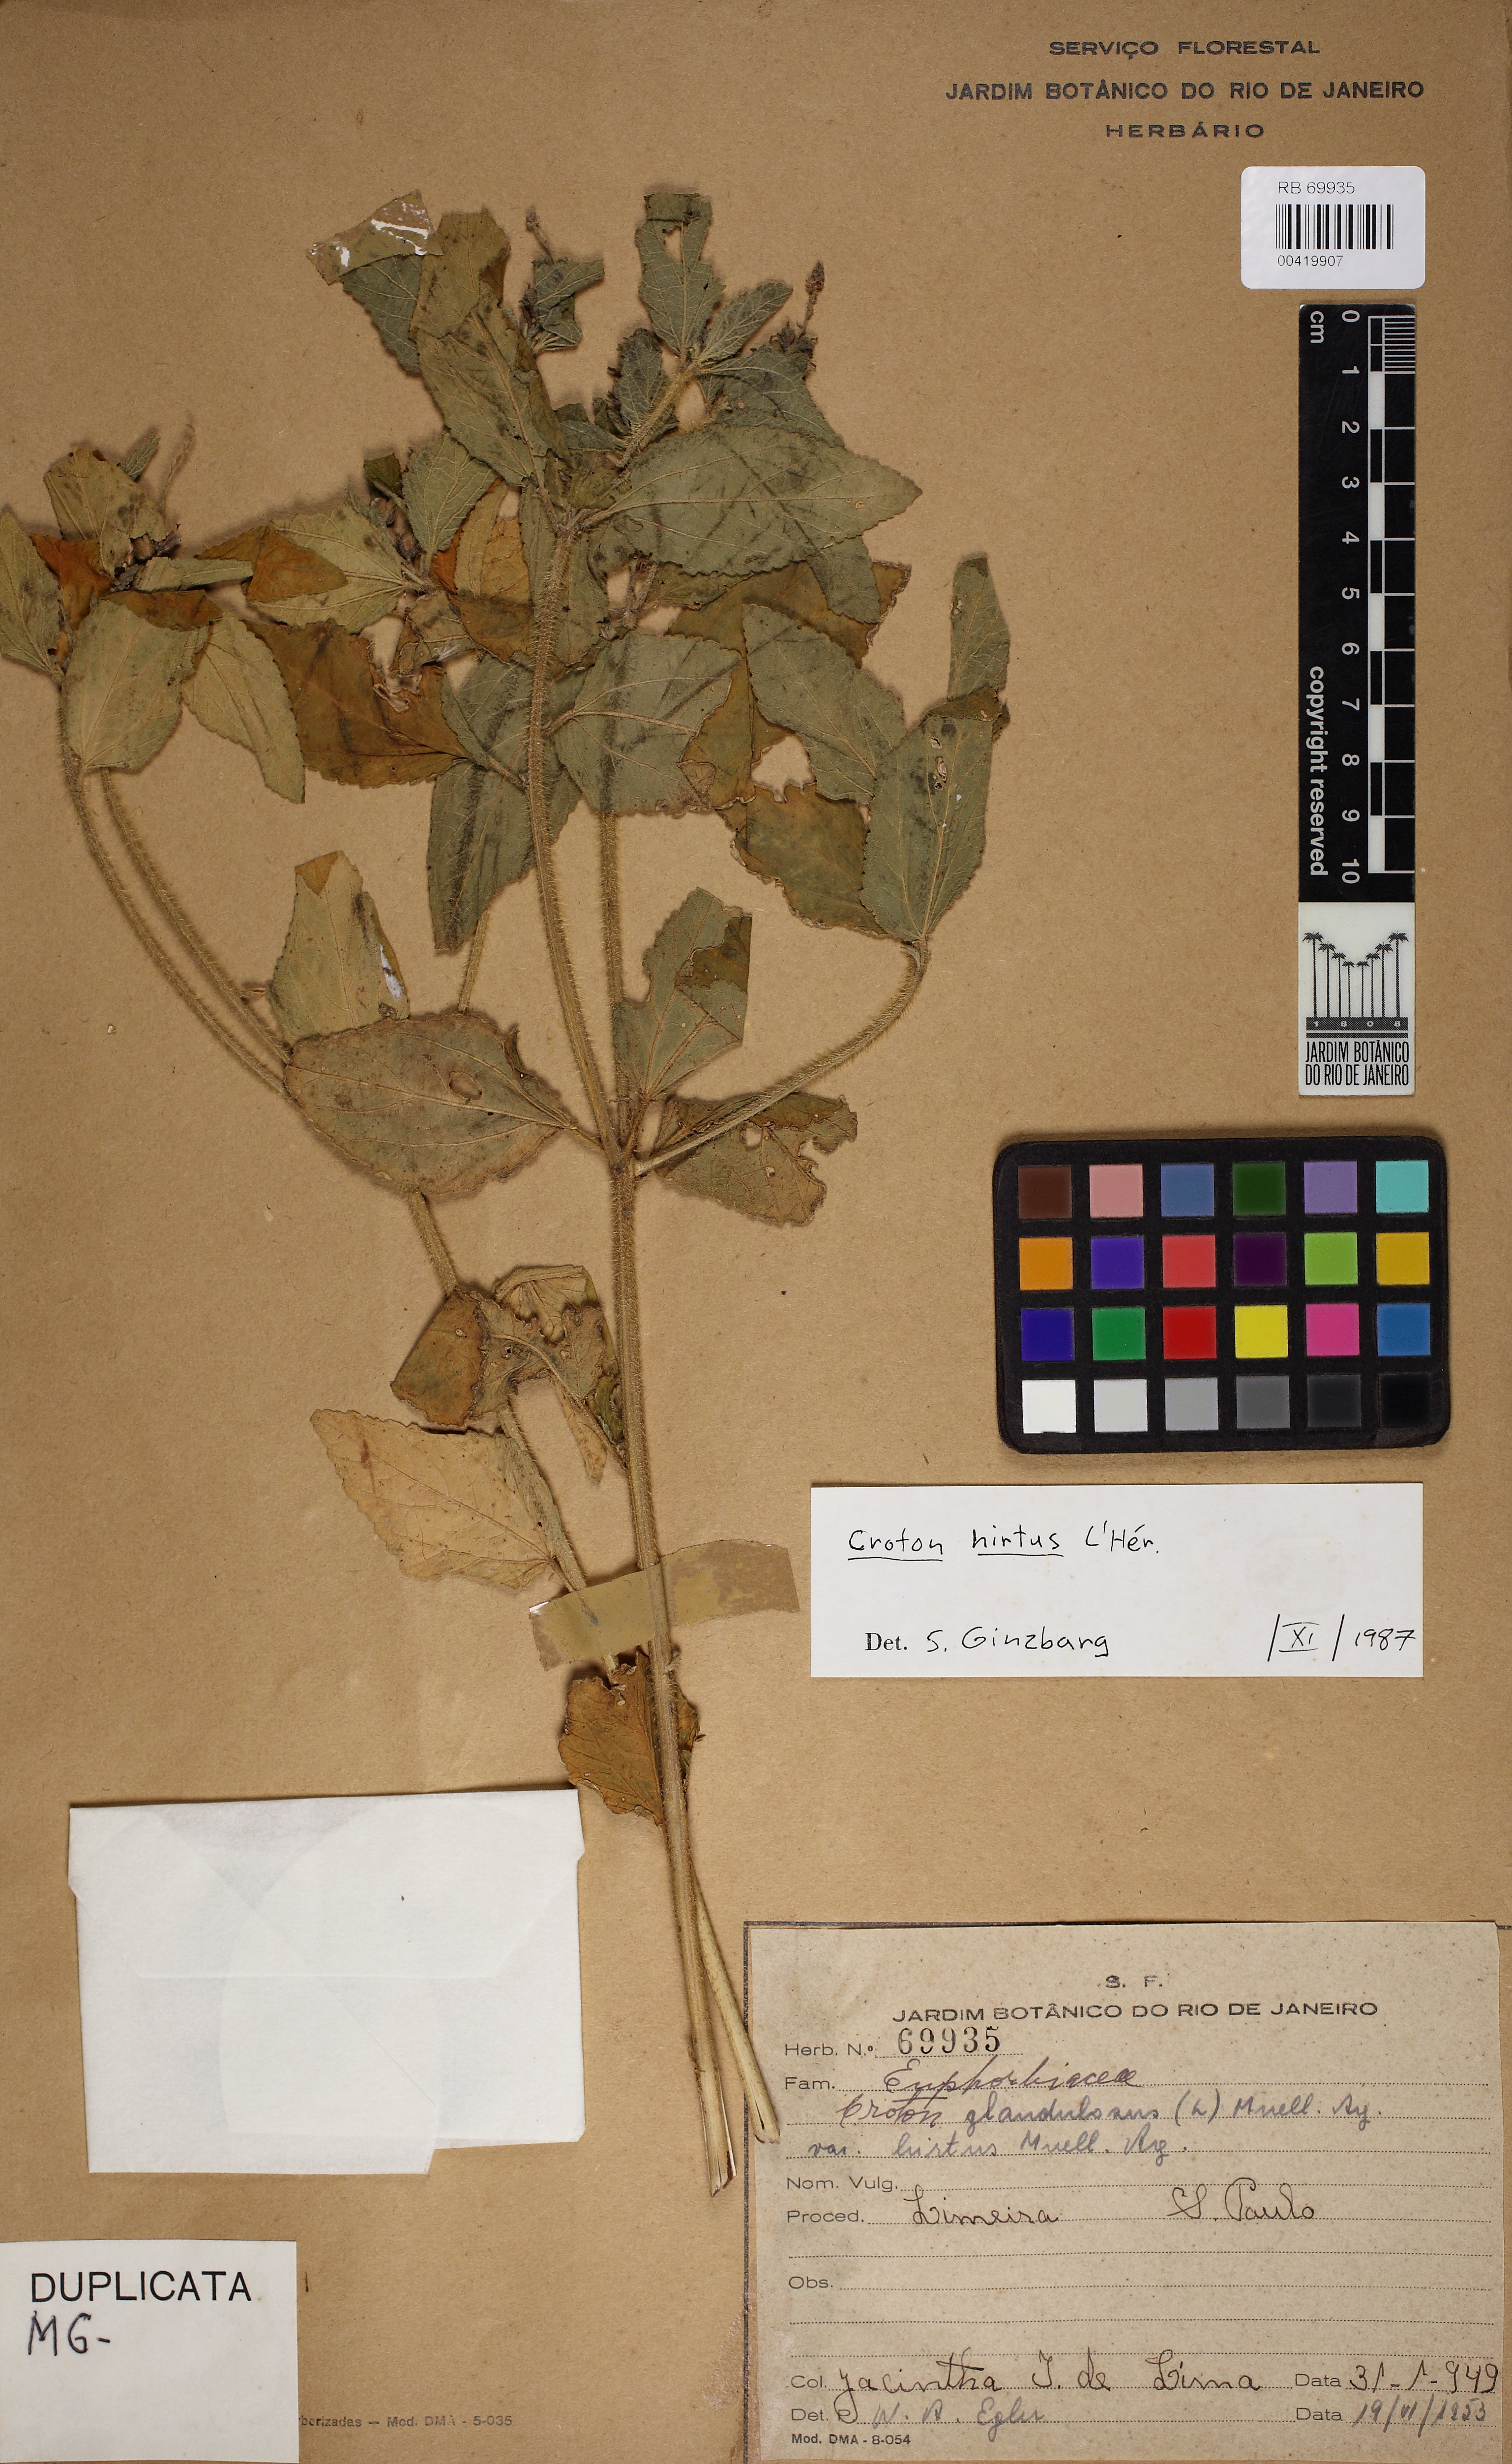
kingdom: Plantae
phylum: Tracheophyta
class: Magnoliopsida
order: Malpighiales
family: Euphorbiaceae
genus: Croton
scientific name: Croton hirtus
